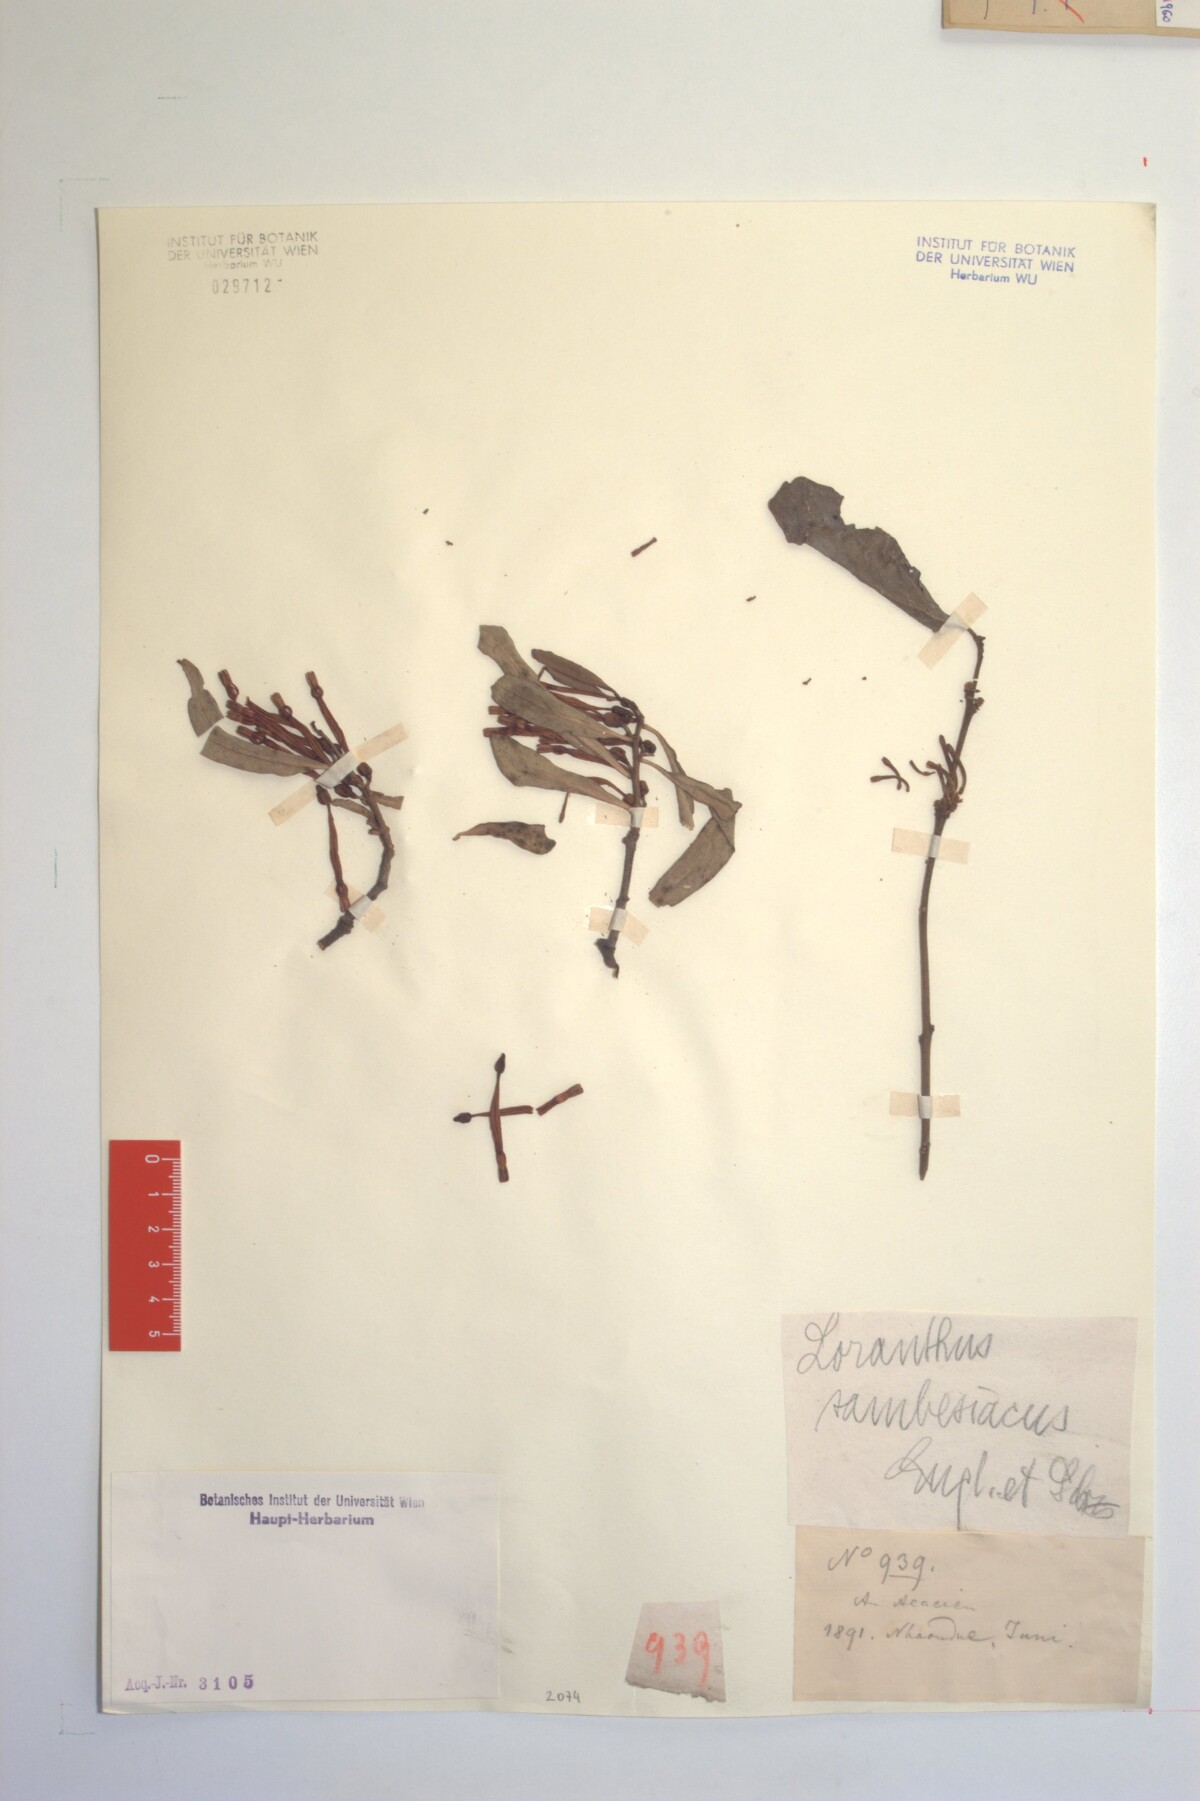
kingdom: Plantae
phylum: Tracheophyta
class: Magnoliopsida
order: Santalales
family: Loranthaceae
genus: Agelanthus
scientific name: Agelanthus sambesiacus
